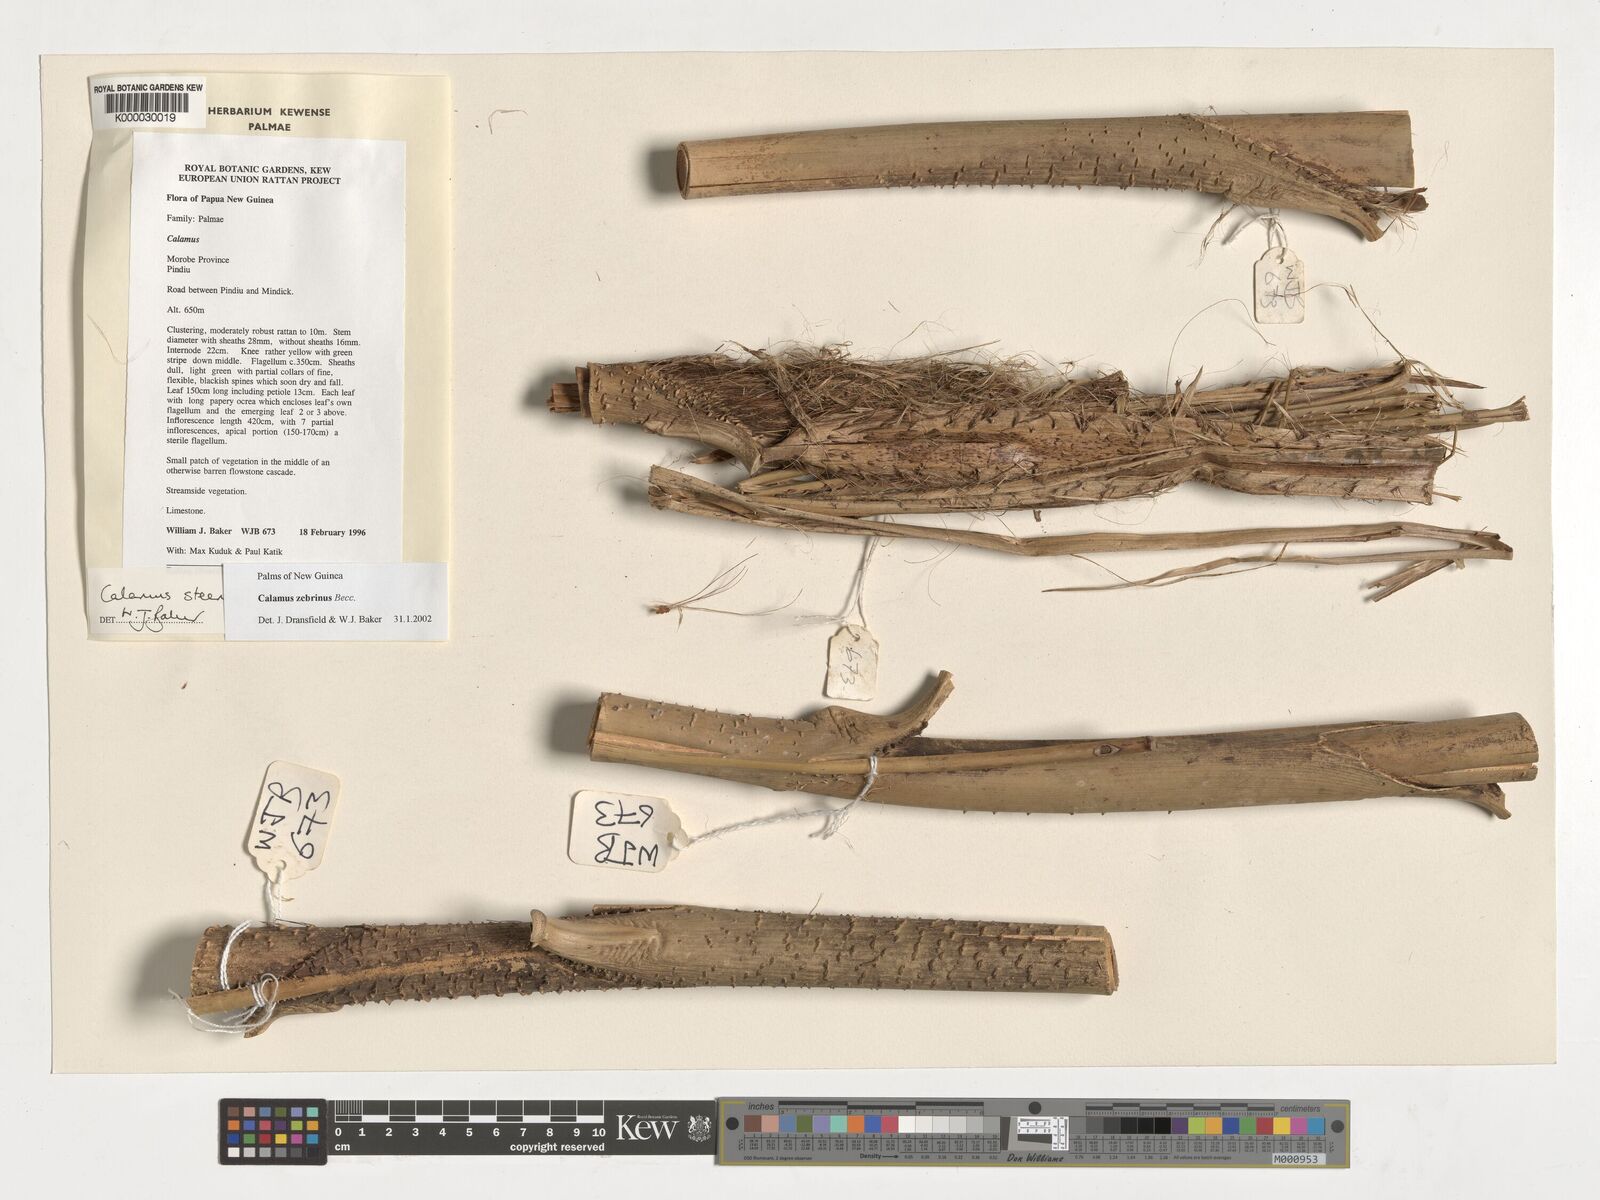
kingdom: Plantae
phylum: Tracheophyta
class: Liliopsida
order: Arecales
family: Arecaceae
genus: Calamus
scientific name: Calamus zebrinus
